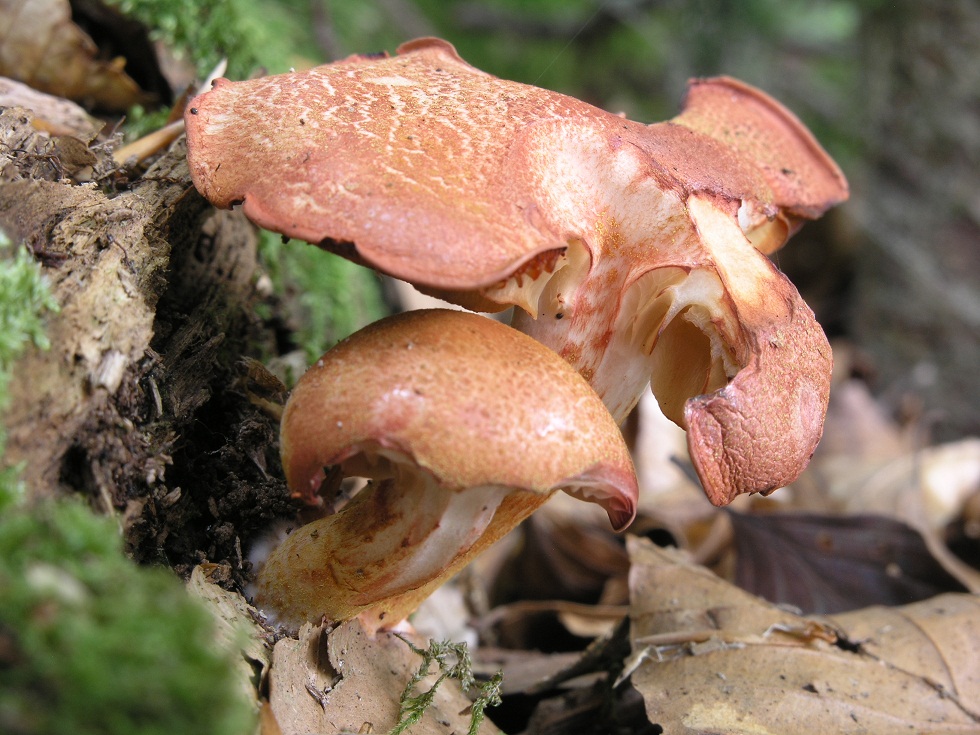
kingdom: Fungi
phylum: Basidiomycota
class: Agaricomycetes
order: Agaricales
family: Cortinariaceae
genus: Cortinarius
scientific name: Cortinarius bolaris
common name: cinnoberskællet slørhat
